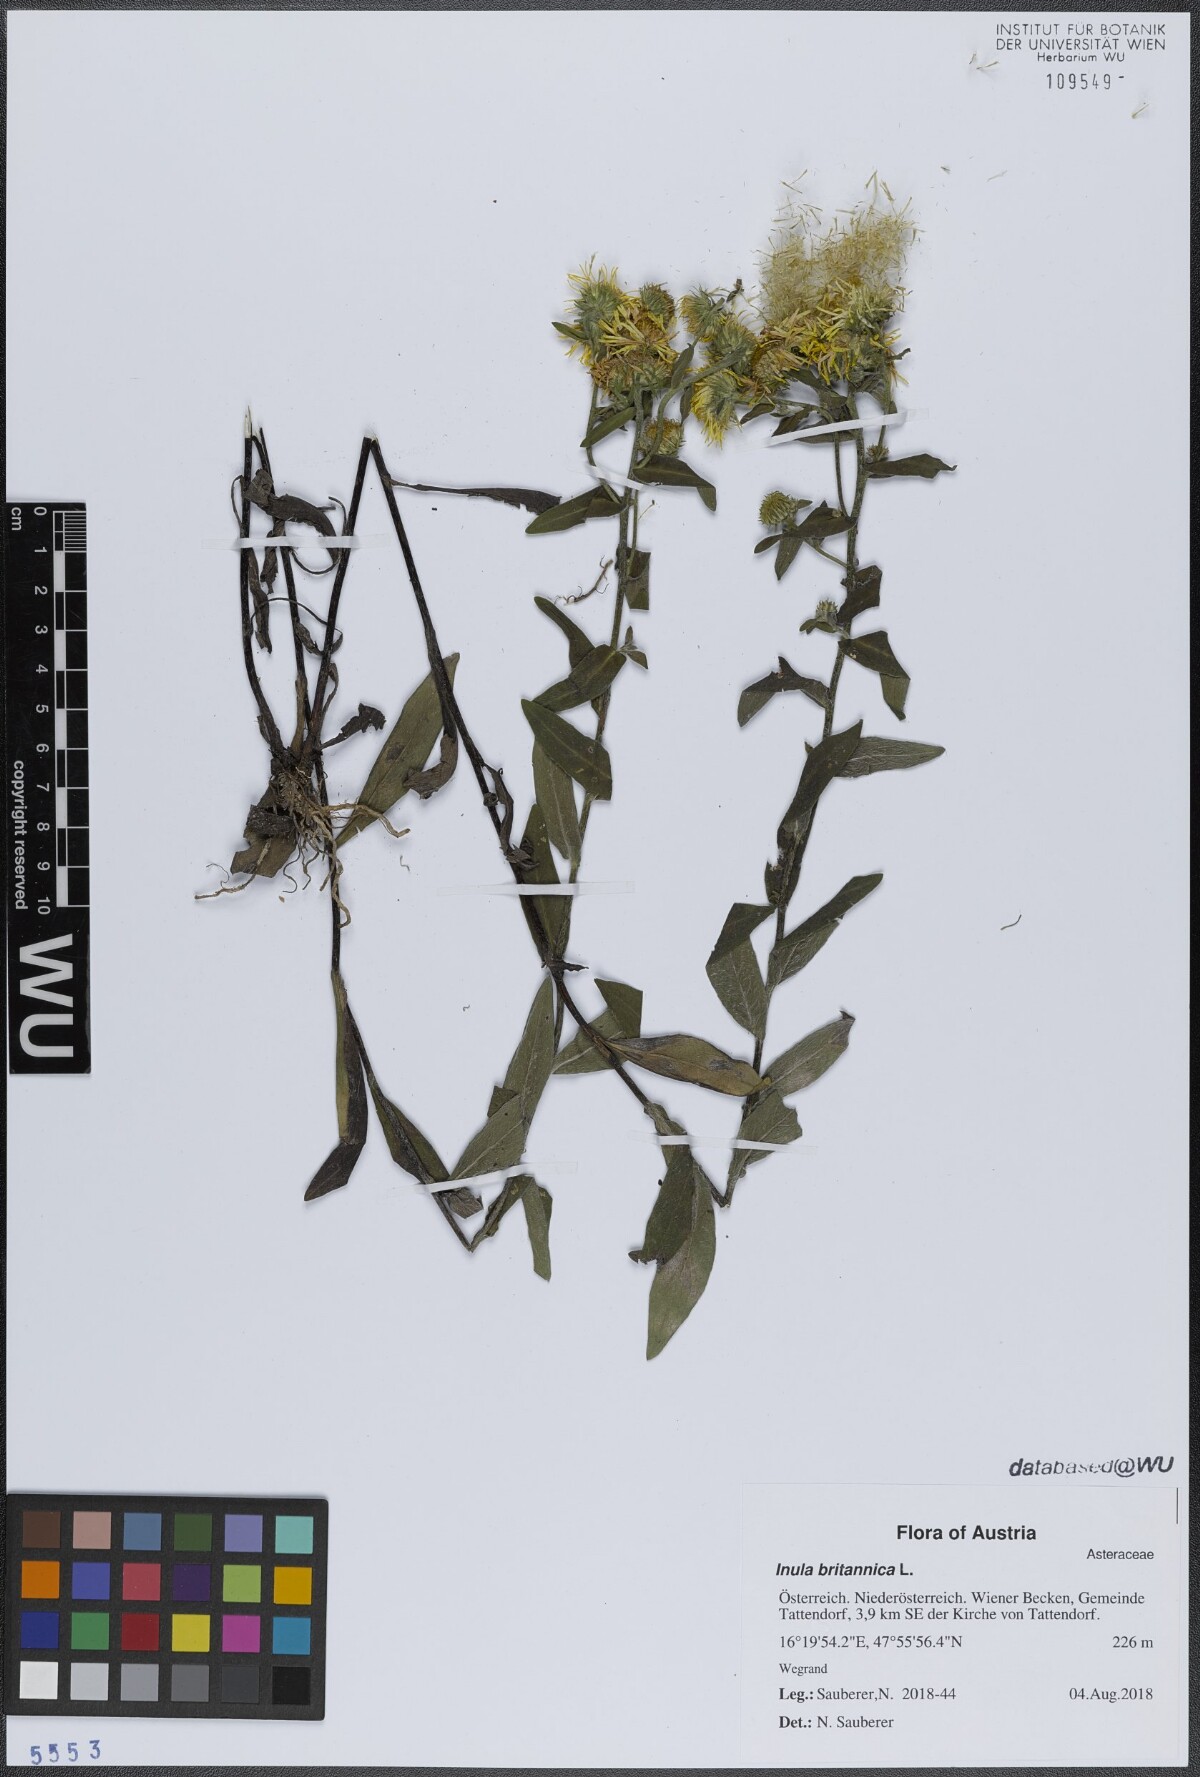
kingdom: Plantae
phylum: Tracheophyta
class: Magnoliopsida
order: Asterales
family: Asteraceae
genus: Pentanema
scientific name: Pentanema britannicum
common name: British elecampane
